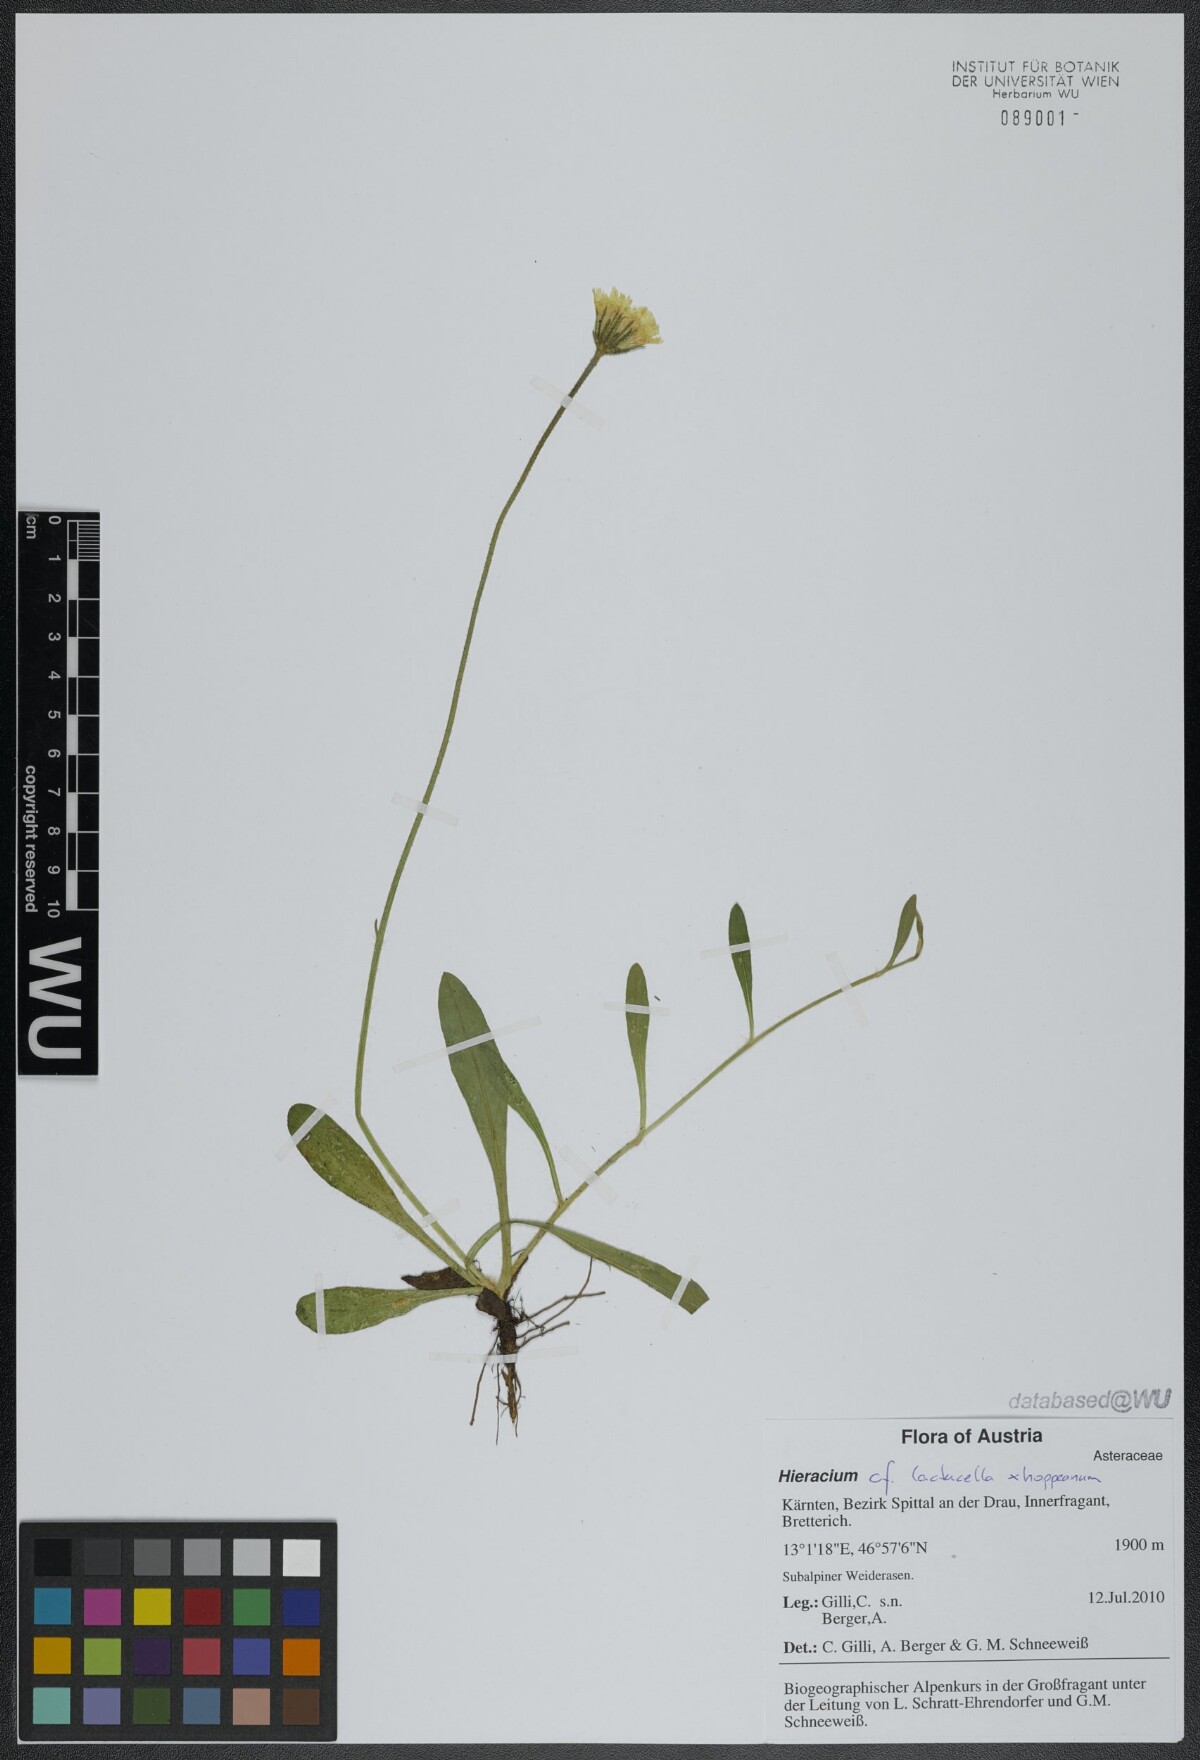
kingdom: Plantae
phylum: Tracheophyta
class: Magnoliopsida
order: Asterales
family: Asteraceae
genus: Pilosella
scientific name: Pilosella viridifolia
